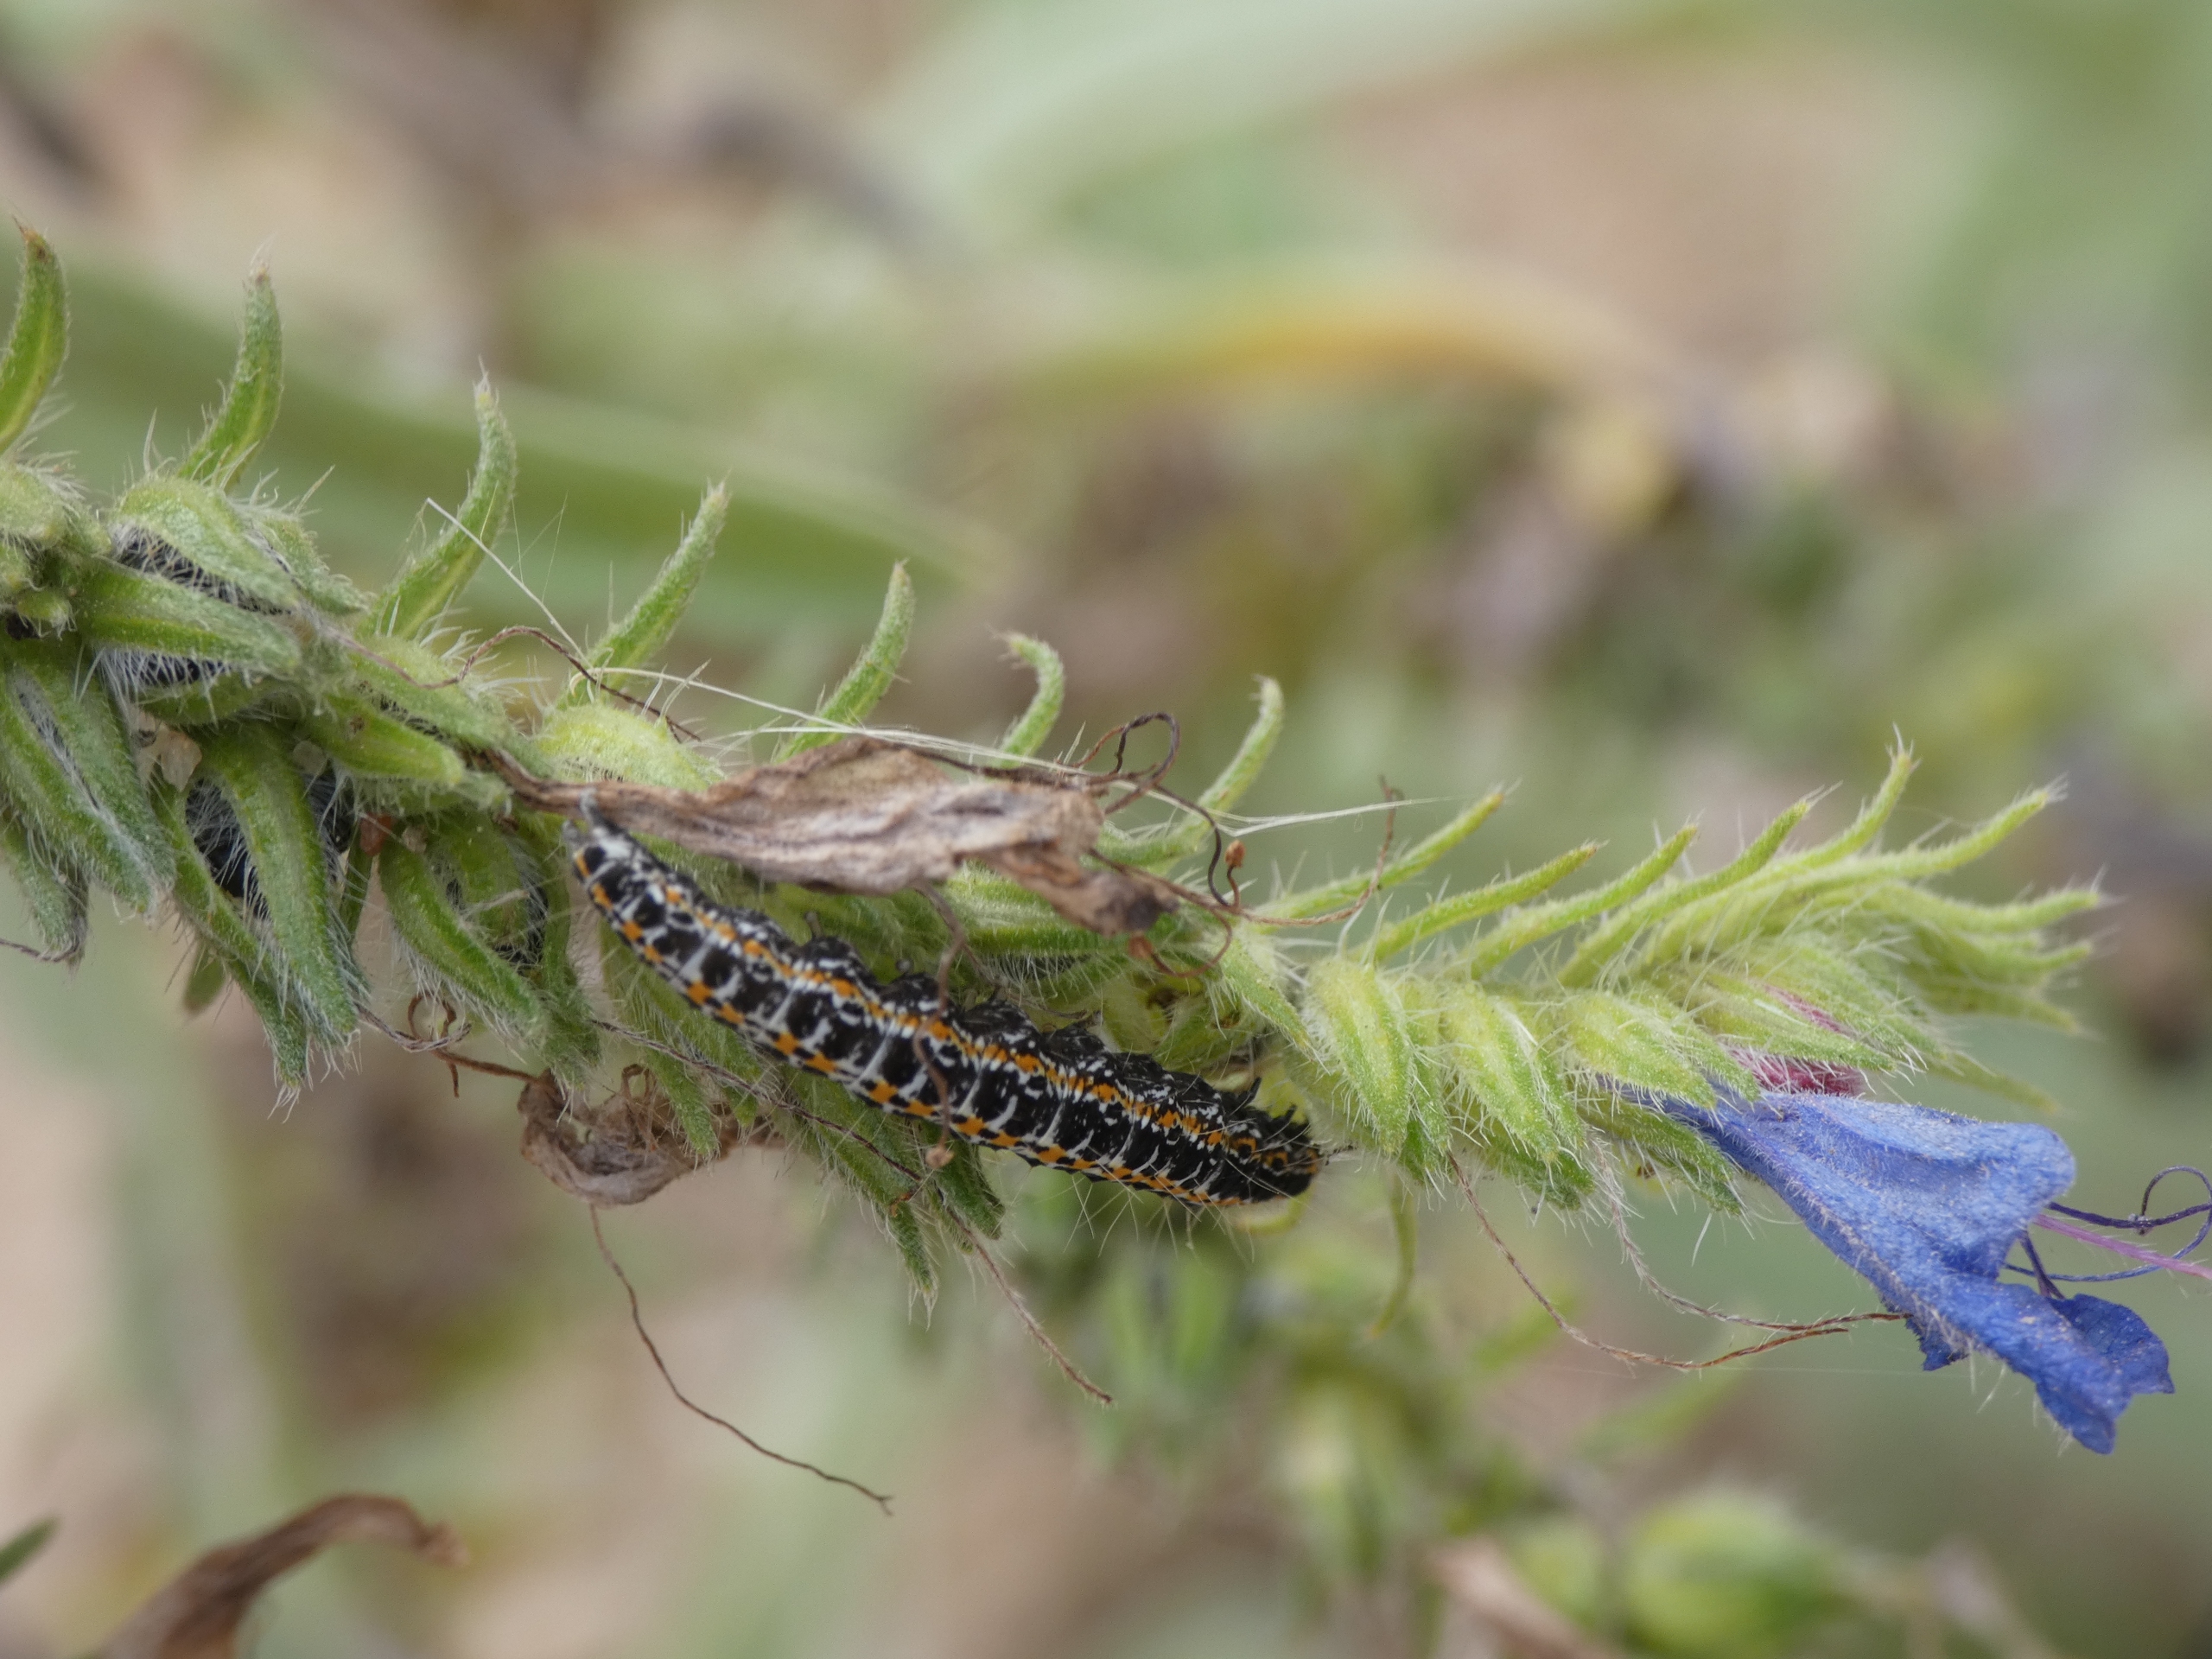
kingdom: Animalia
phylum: Arthropoda
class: Insecta
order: Lepidoptera
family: Ethmiidae
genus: Ethmia
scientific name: Ethmia bipunctella
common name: Slangehovedmøl
